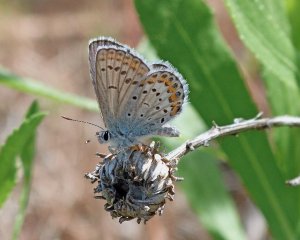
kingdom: Animalia
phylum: Arthropoda
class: Insecta
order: Lepidoptera
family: Lycaenidae
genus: Lycaeides
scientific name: Lycaeides melissa
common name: Melissa Blue
